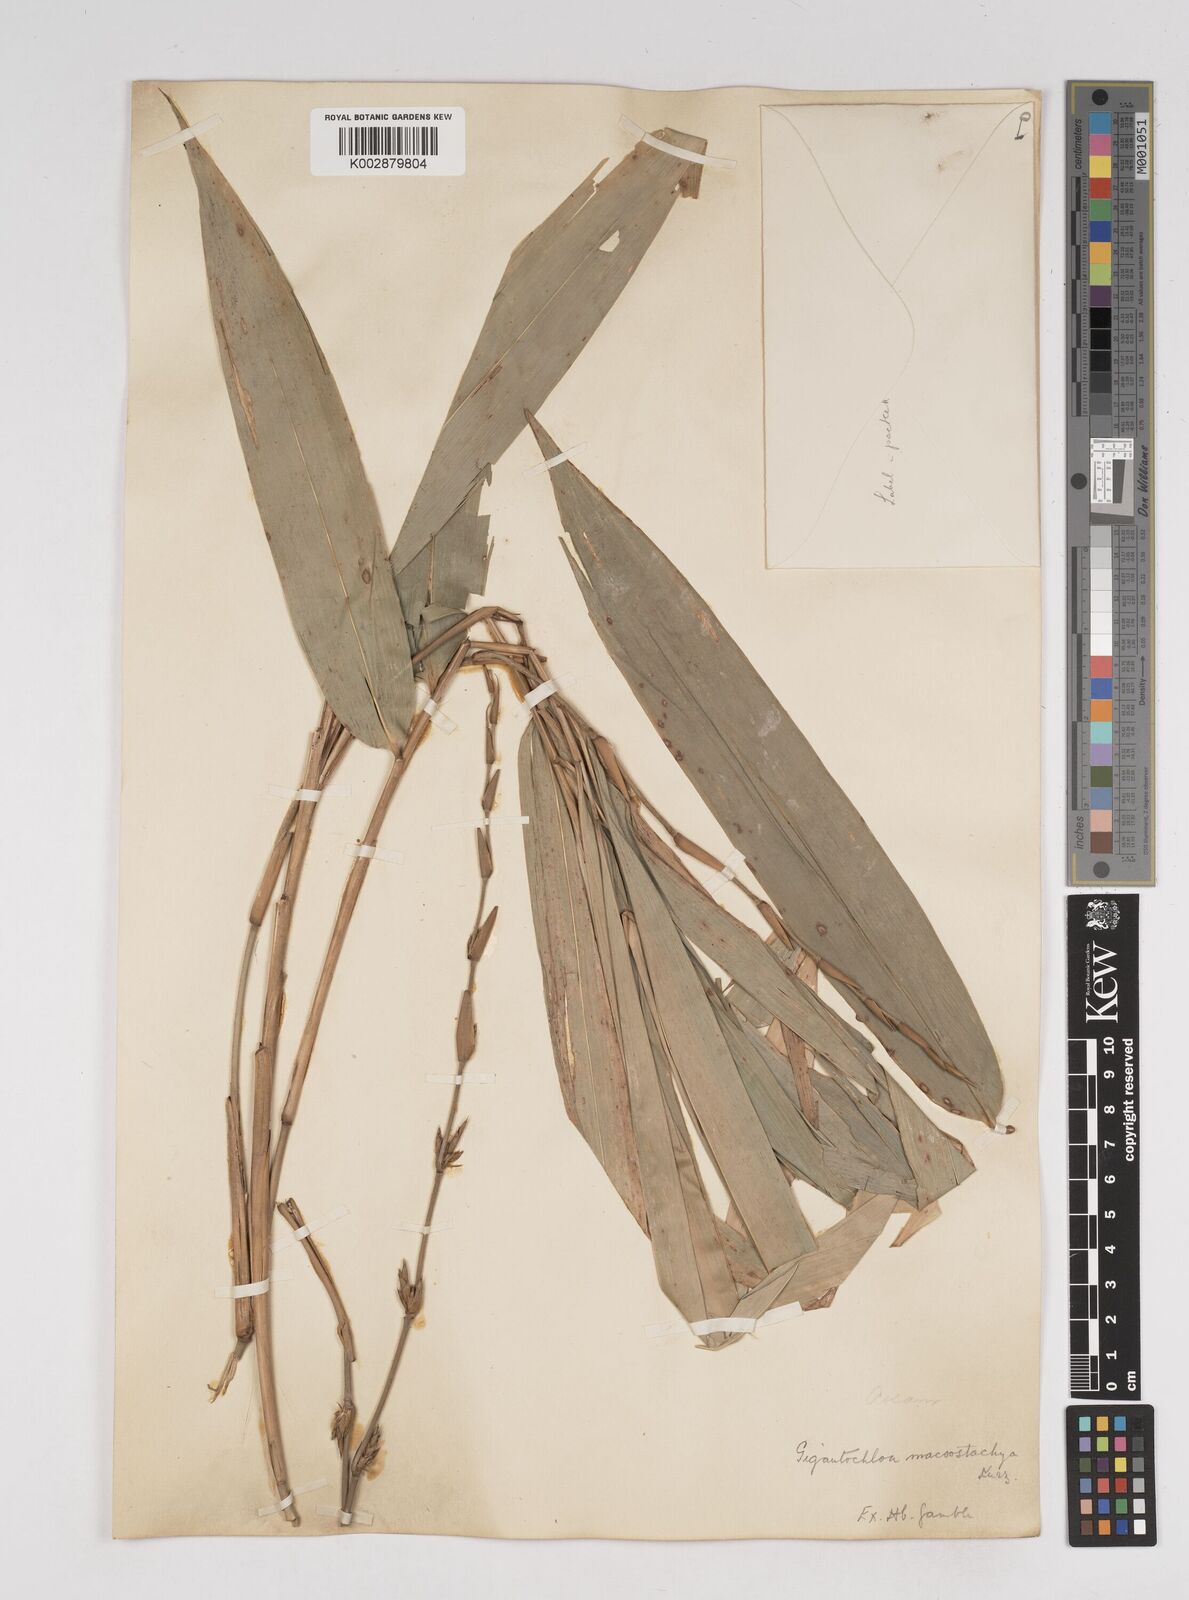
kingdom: Plantae
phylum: Tracheophyta
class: Liliopsida
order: Poales
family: Poaceae
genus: Gigantochloa
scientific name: Gigantochloa macrostachya
